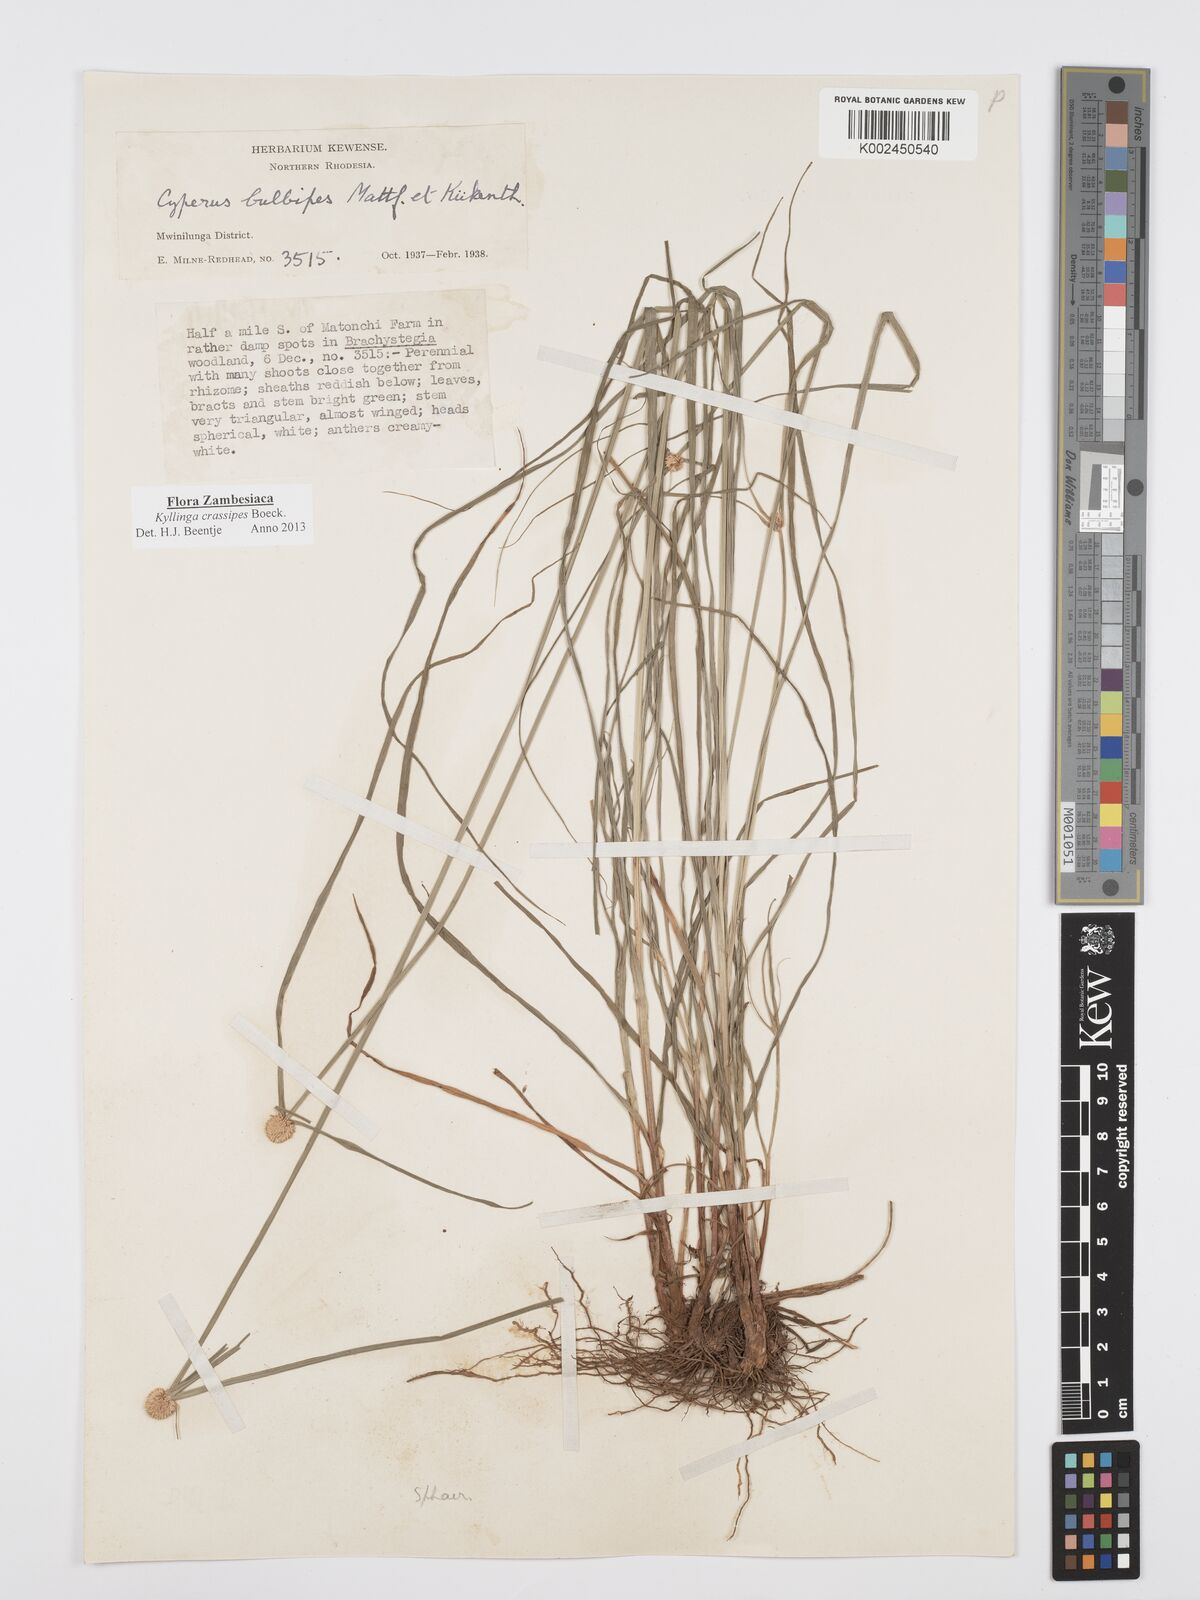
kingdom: Plantae
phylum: Tracheophyta
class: Liliopsida
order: Poales
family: Cyperaceae
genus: Cyperus
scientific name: Cyperus crassipes
